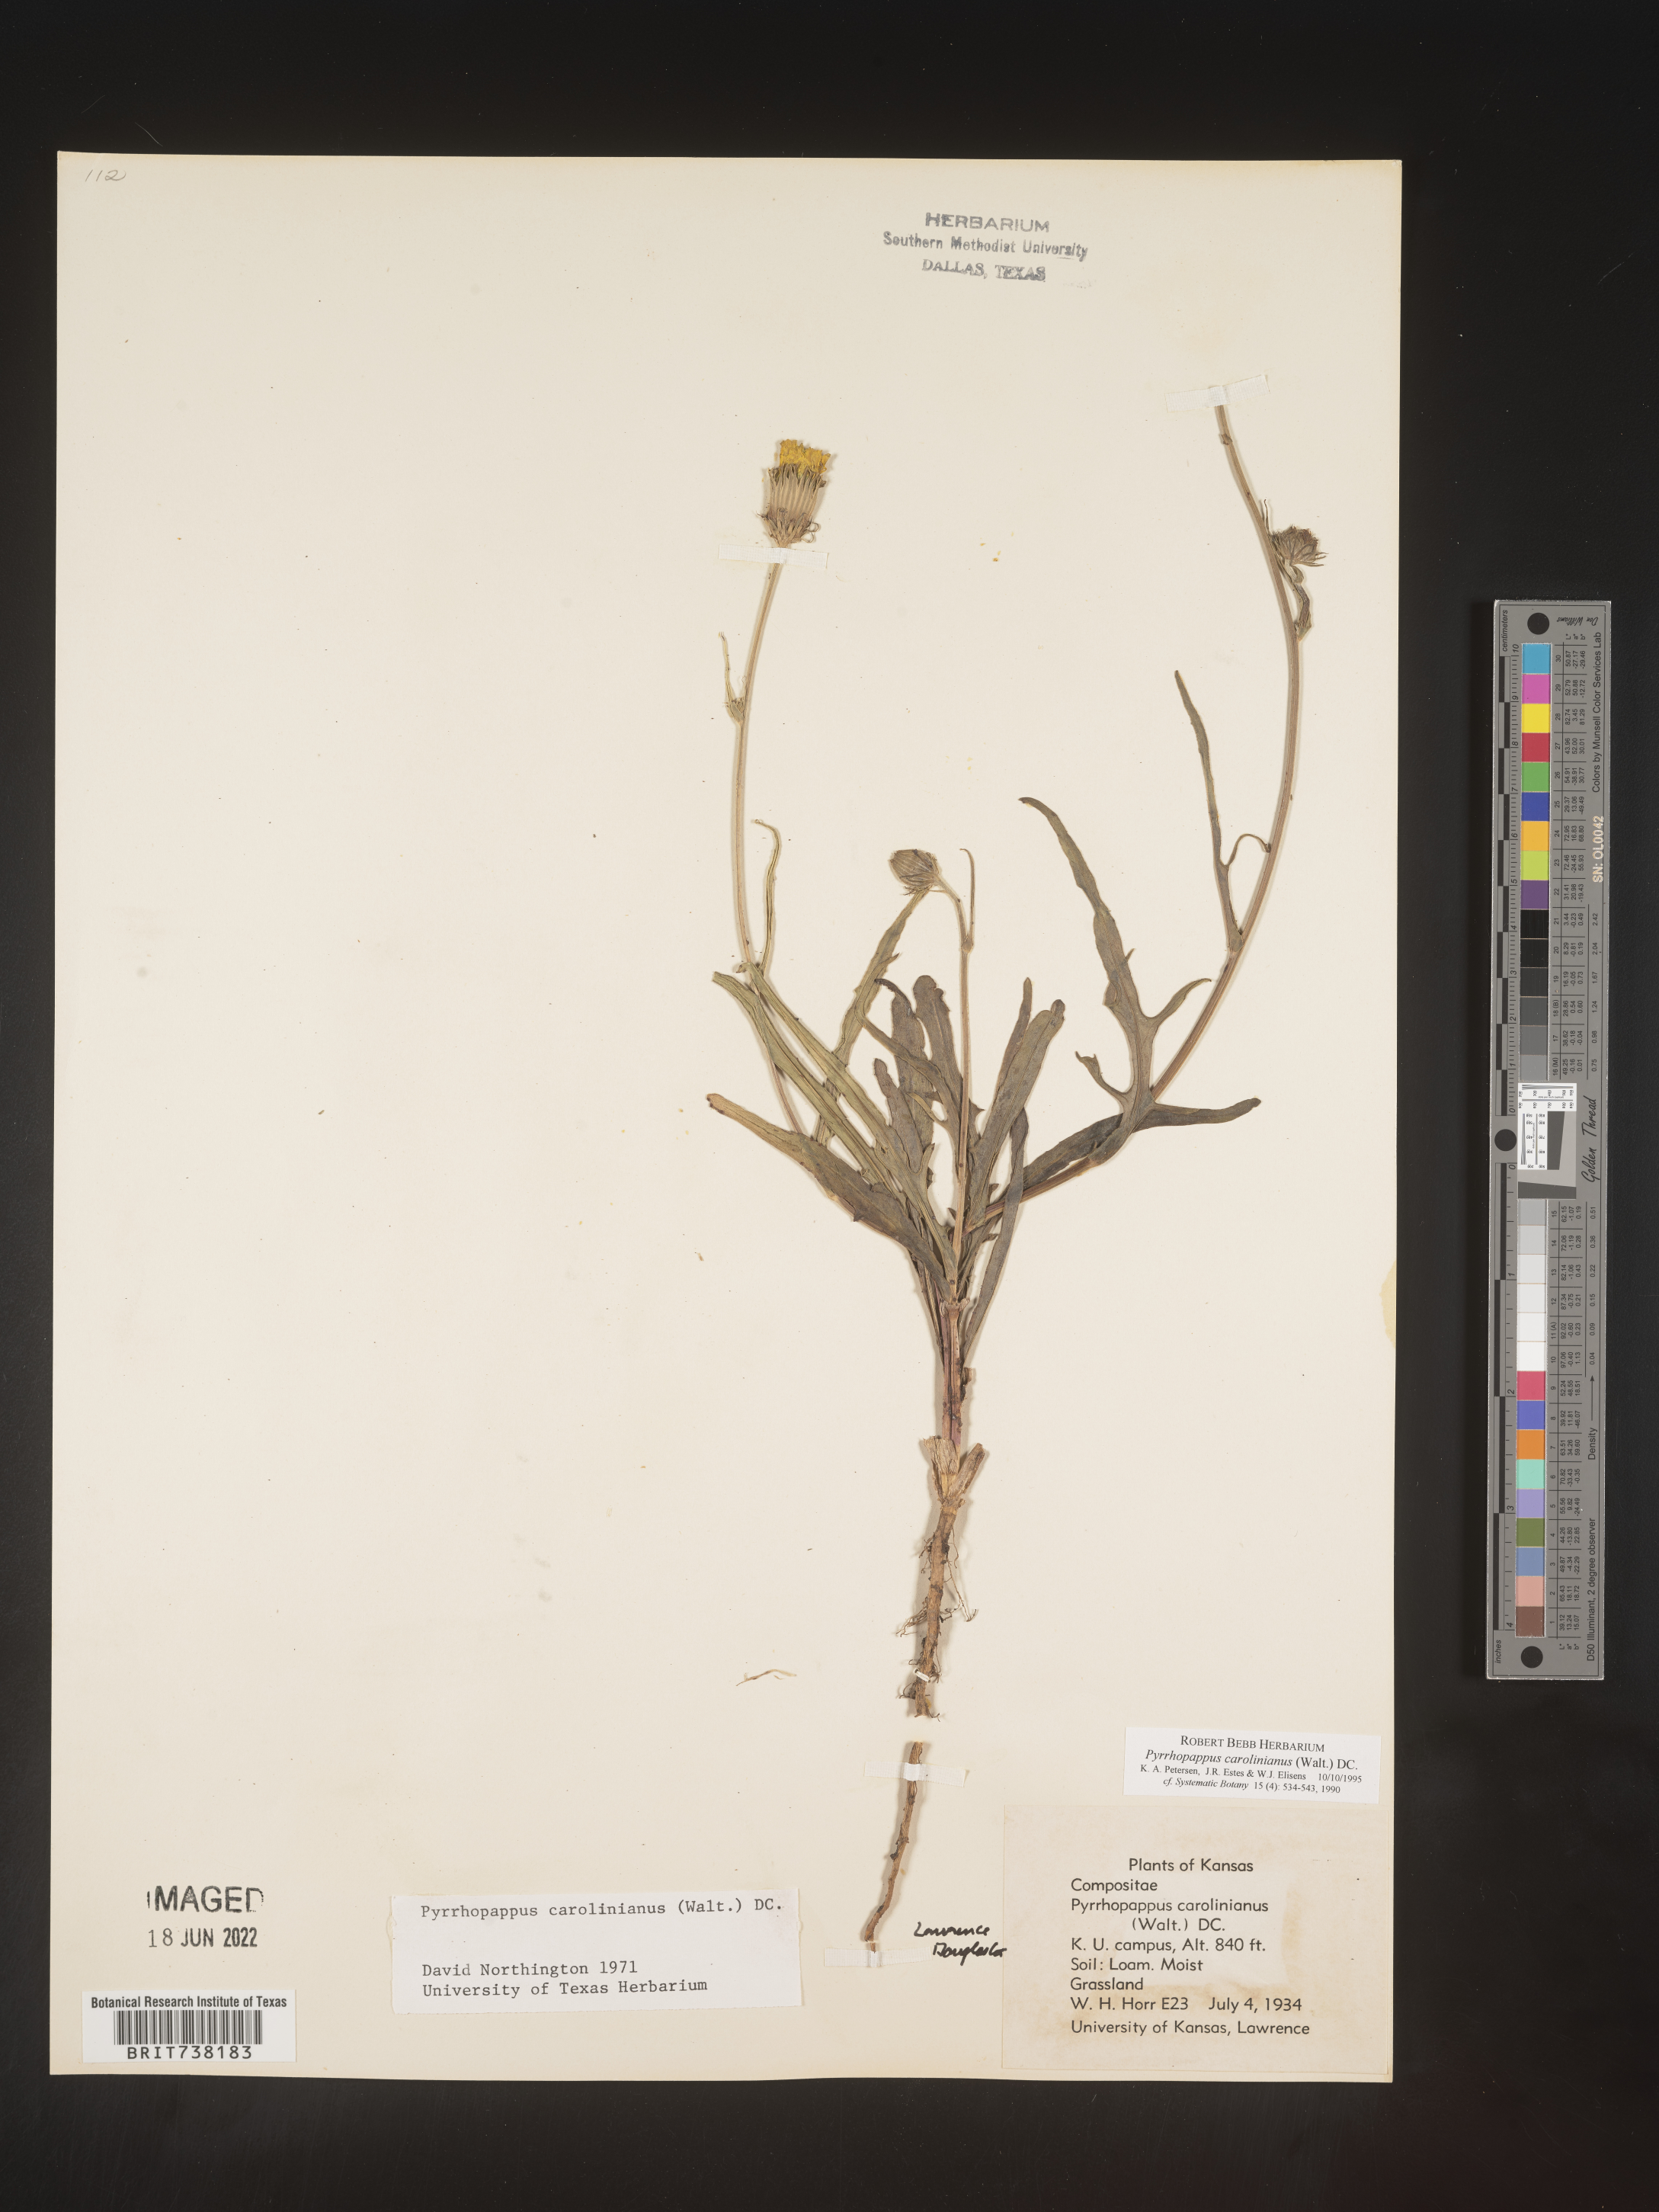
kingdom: Plantae
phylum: Tracheophyta
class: Magnoliopsida
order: Asterales
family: Asteraceae
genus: Pyrrhopappus
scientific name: Pyrrhopappus carolinianus
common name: Carolina desert-chicory
